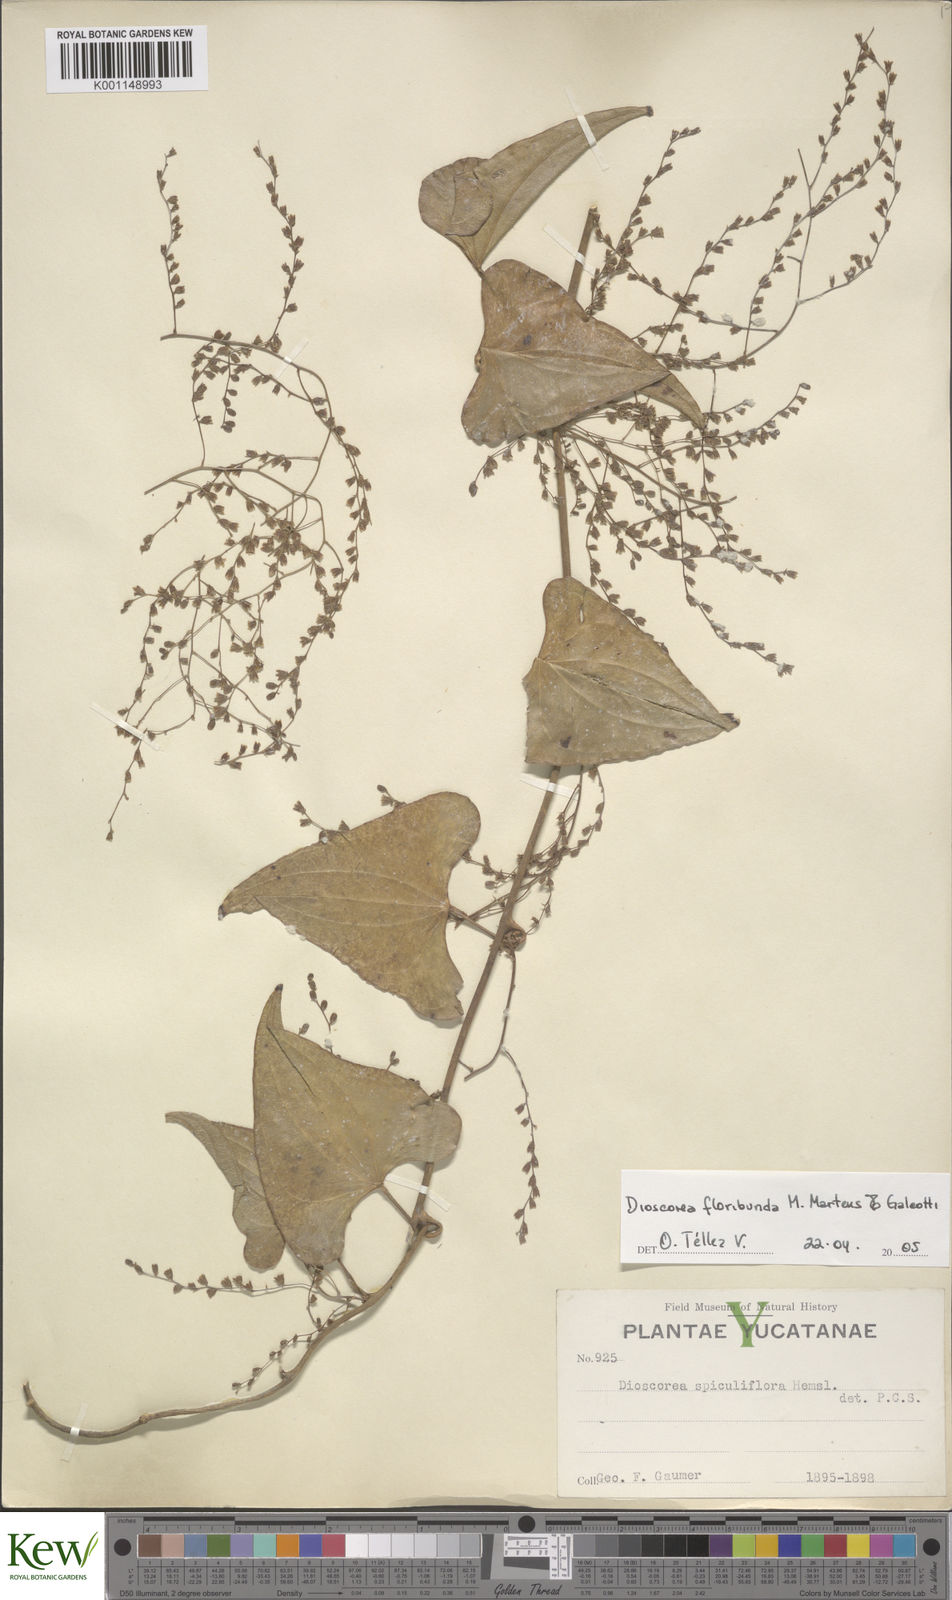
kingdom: Plantae
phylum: Tracheophyta
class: Liliopsida
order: Dioscoreales
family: Dioscoreaceae
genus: Dioscorea
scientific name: Dioscorea floribunda
